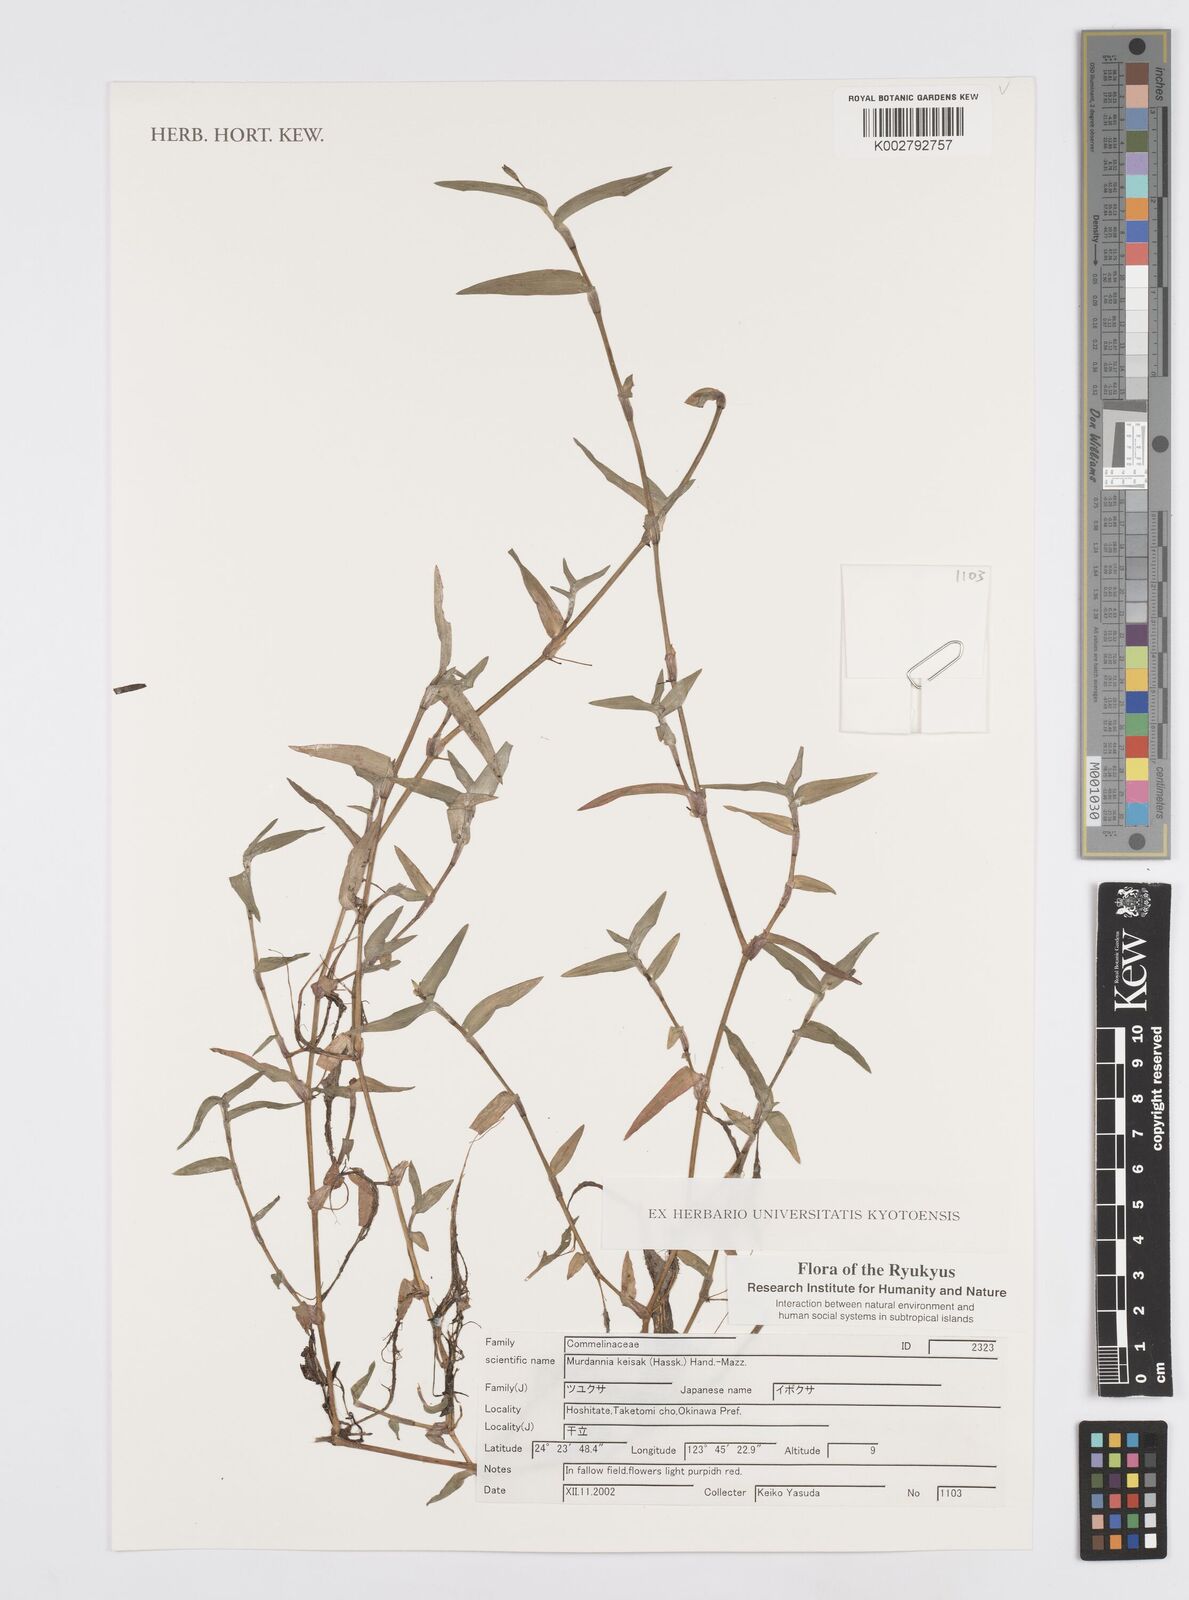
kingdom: Plantae
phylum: Tracheophyta
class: Liliopsida
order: Commelinales
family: Commelinaceae
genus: Murdannia
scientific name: Murdannia keisak
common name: Wartremoving herb
